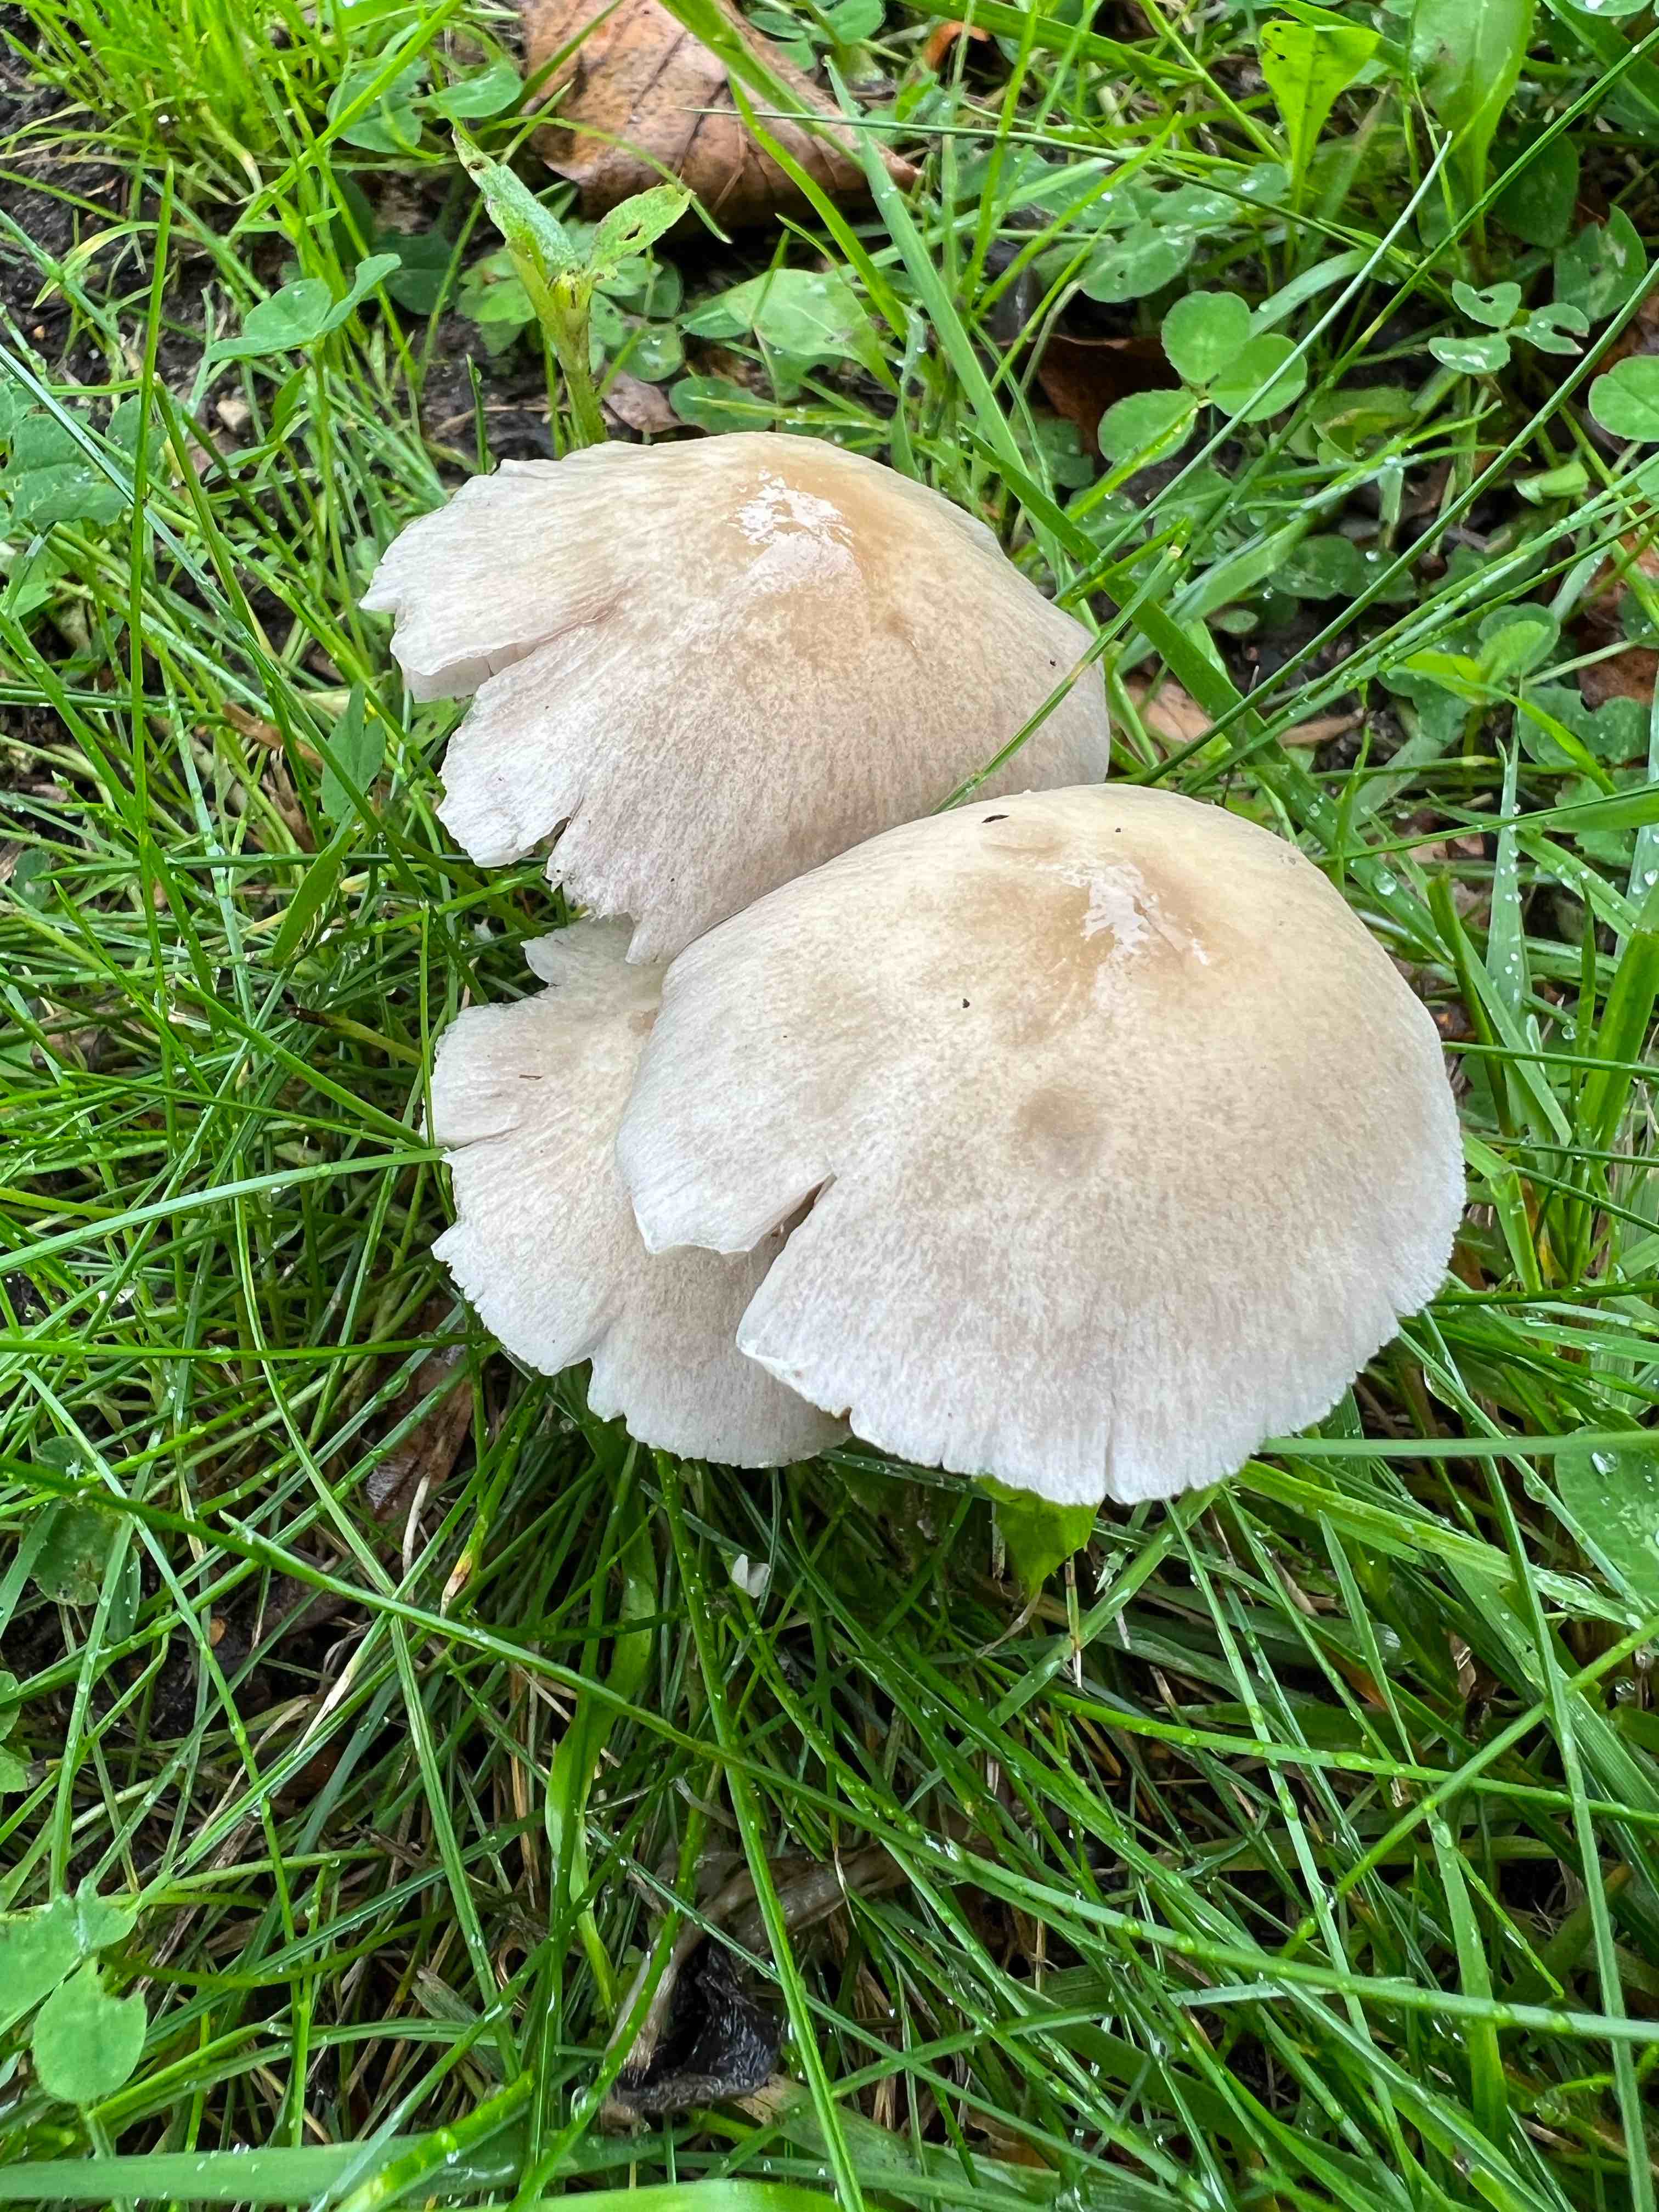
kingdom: Fungi
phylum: Basidiomycota
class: Agaricomycetes
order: Agaricales
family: Psathyrellaceae
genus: Candolleomyces
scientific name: Candolleomyces candolleanus
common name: Candolles mørkhat
